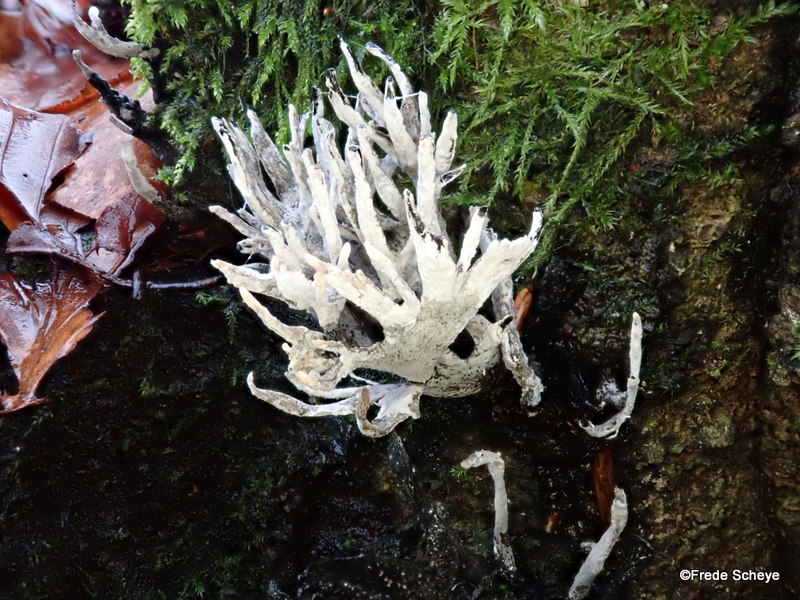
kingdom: Fungi
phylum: Ascomycota
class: Sordariomycetes
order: Xylariales
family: Xylariaceae
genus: Xylaria
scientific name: Xylaria hypoxylon
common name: grenet stødsvamp
